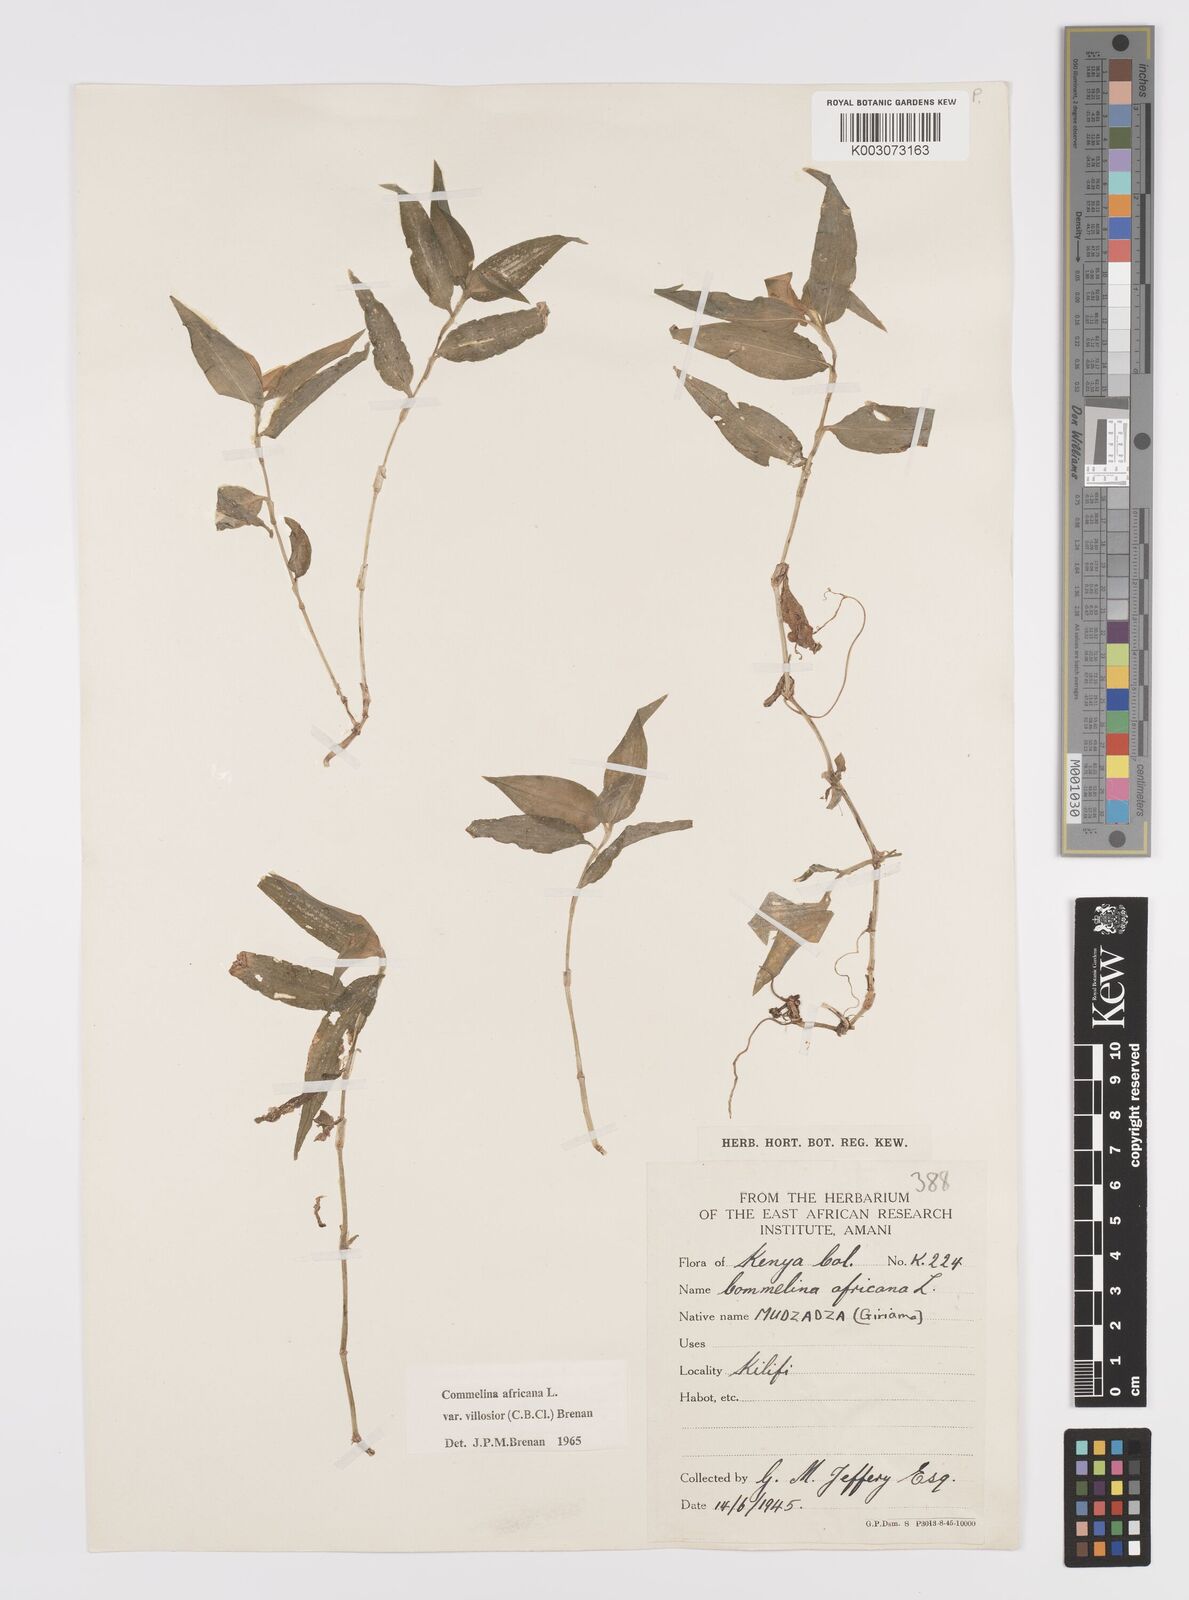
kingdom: Plantae
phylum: Tracheophyta
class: Liliopsida
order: Commelinales
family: Commelinaceae
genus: Commelina
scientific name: Commelina africana
